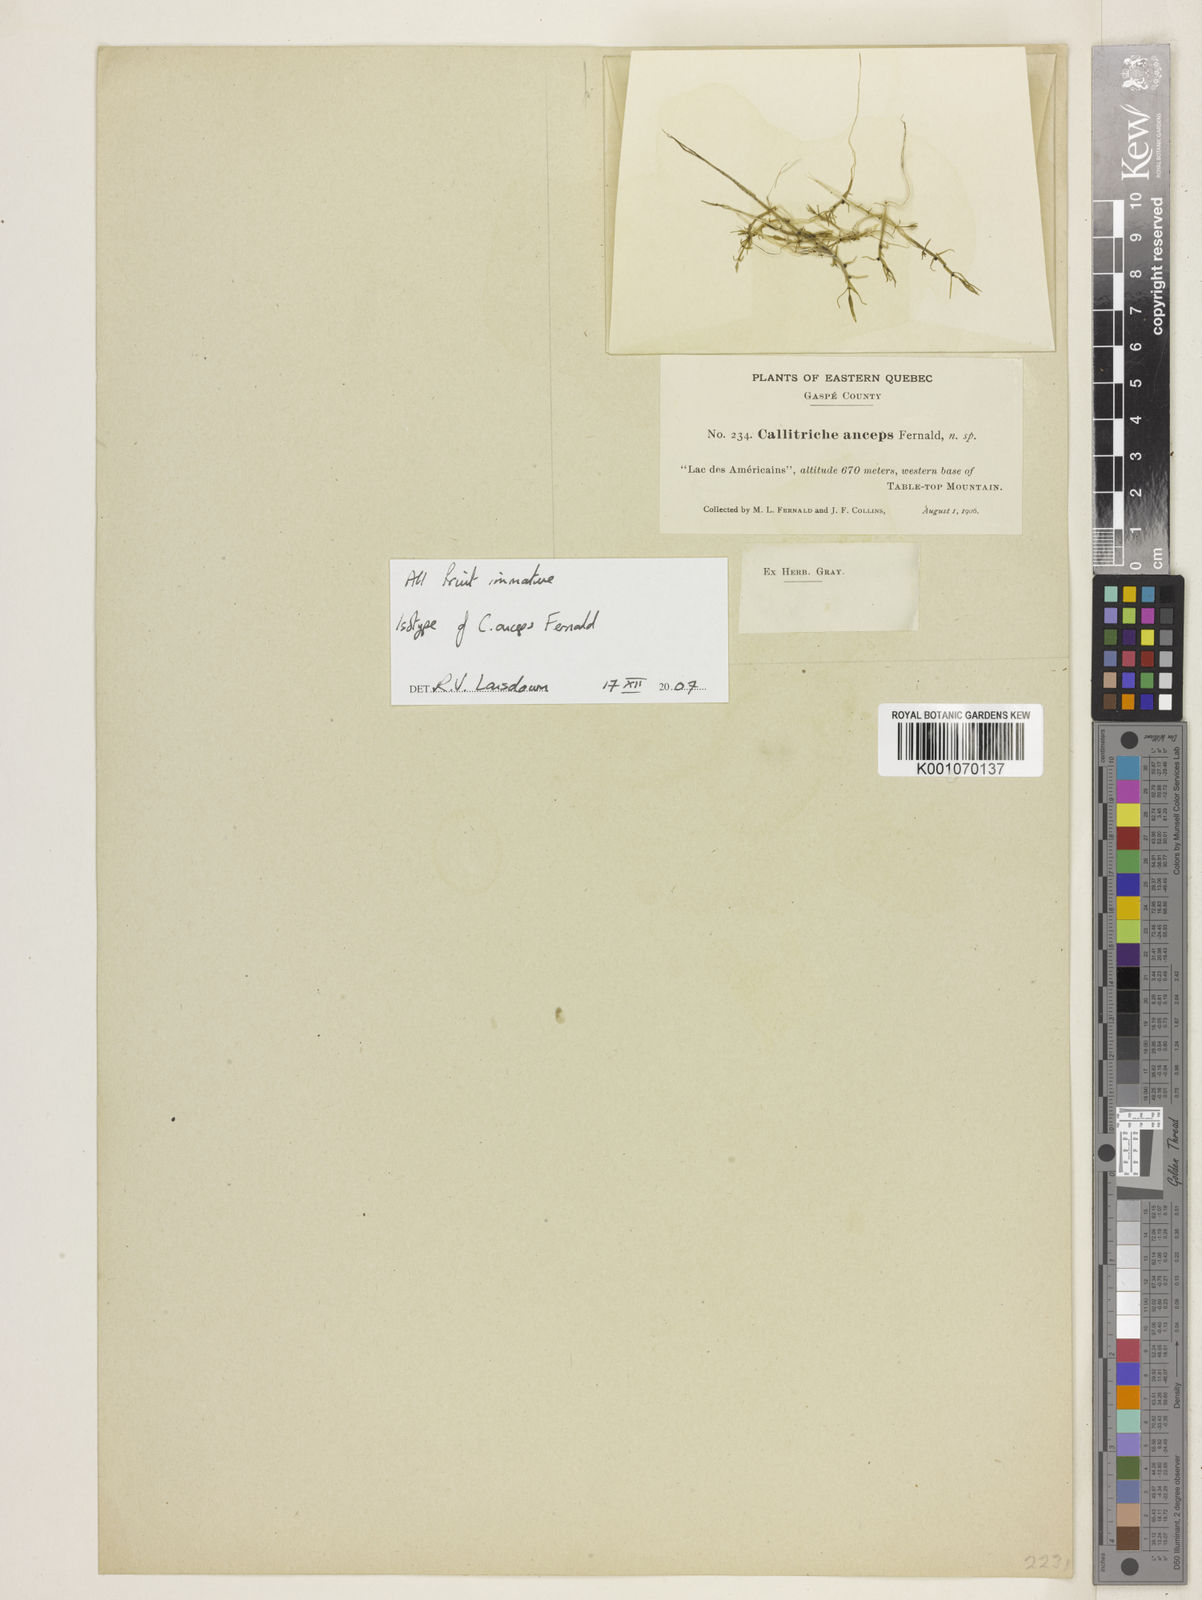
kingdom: Plantae
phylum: Tracheophyta
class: Magnoliopsida
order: Lamiales
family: Plantaginaceae
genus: Callitriche
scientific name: Callitriche heterophylla
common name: Two-headed water-starwort
